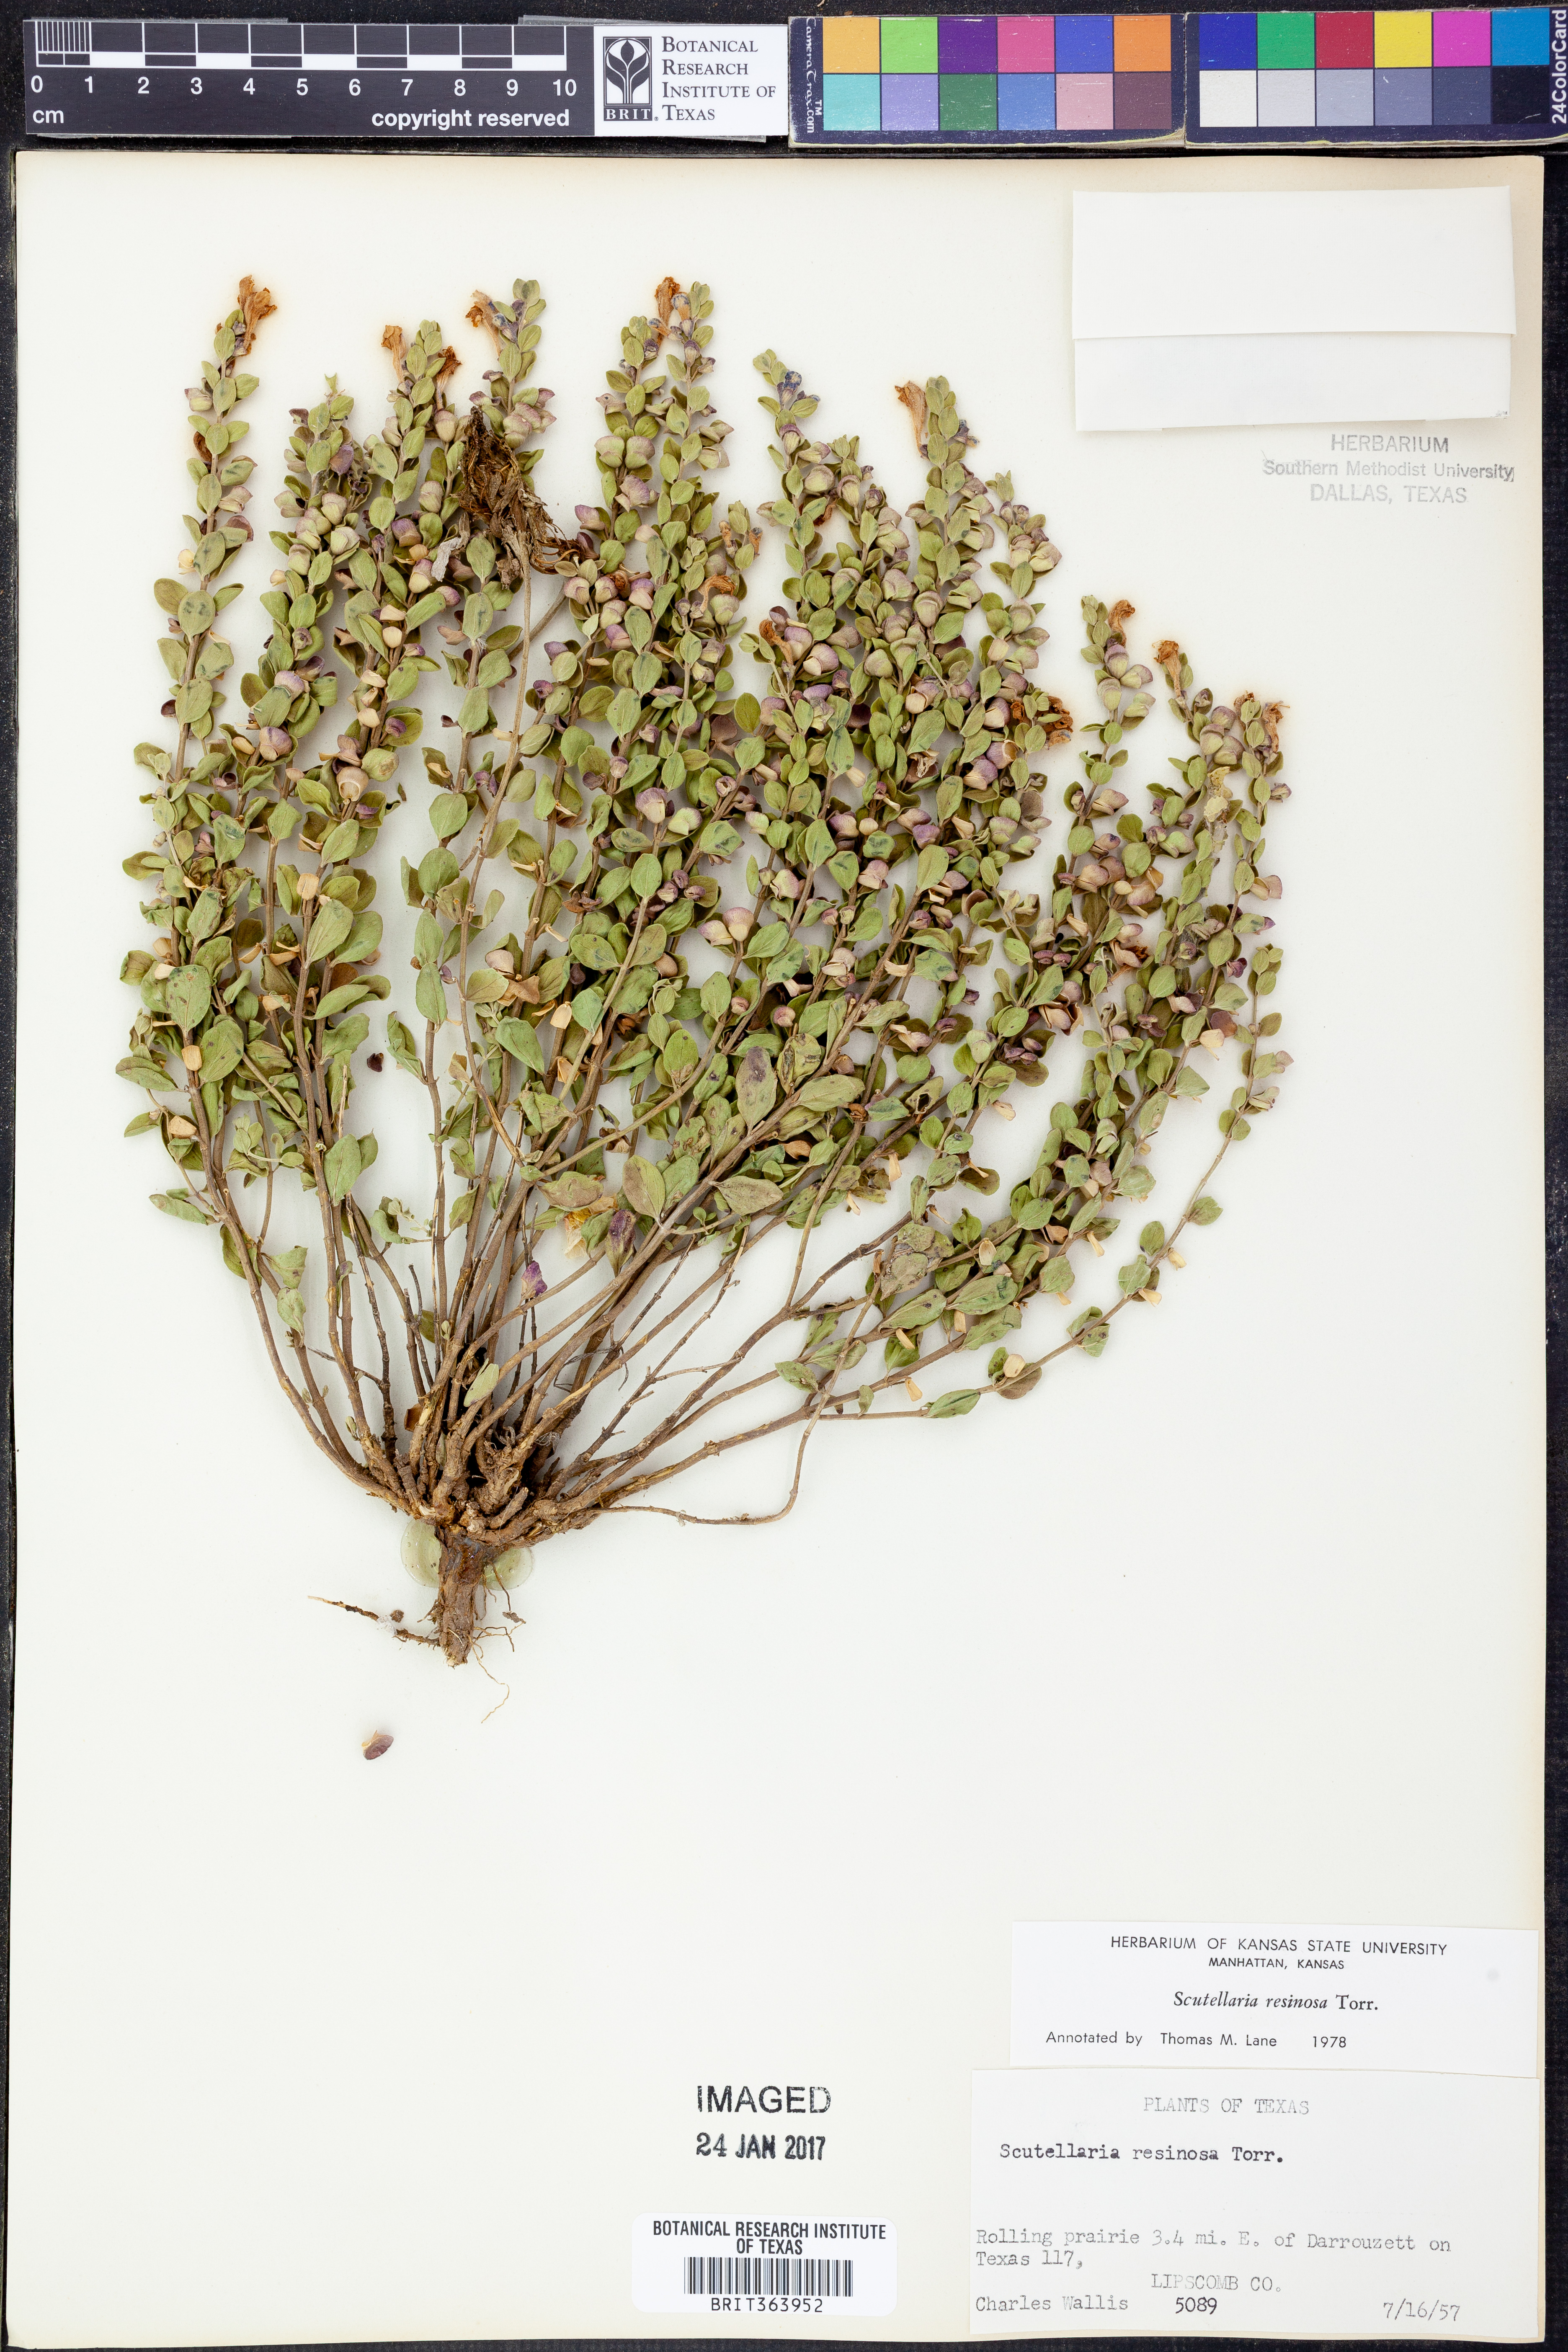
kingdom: Plantae
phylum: Tracheophyta
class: Magnoliopsida
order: Lamiales
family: Lamiaceae
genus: Scutellaria
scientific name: Scutellaria resinosa
